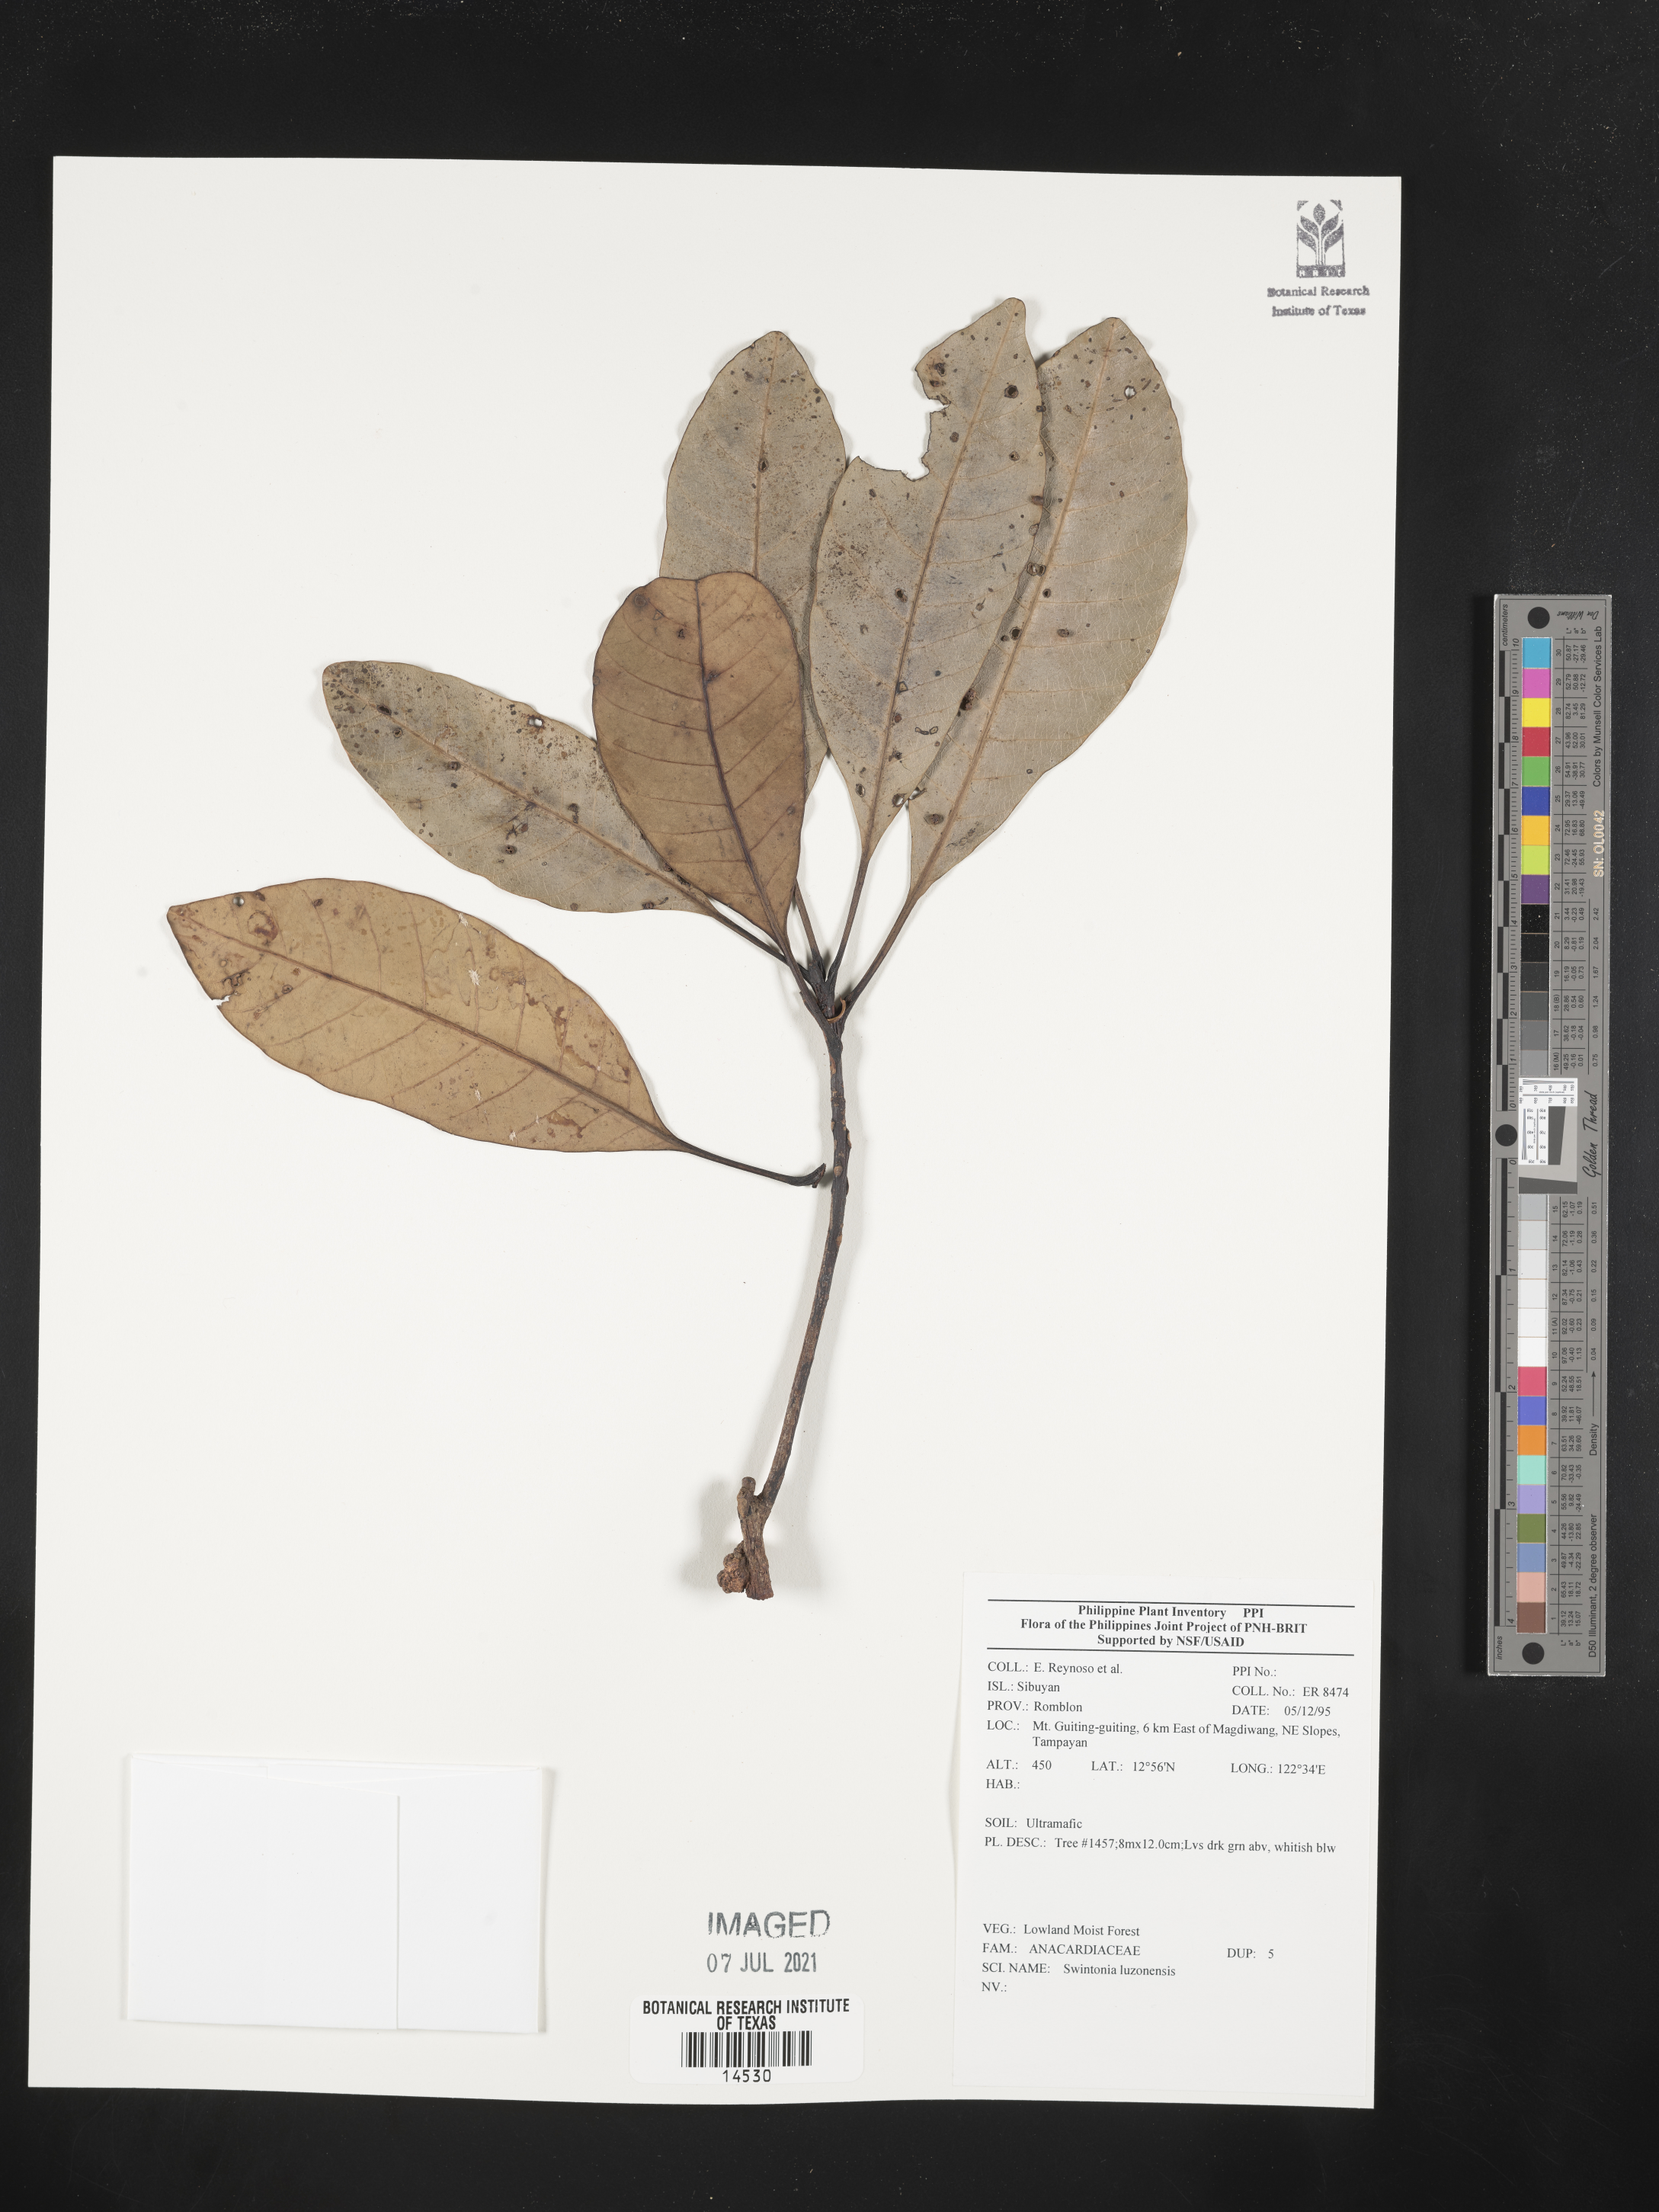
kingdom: Plantae
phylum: Tracheophyta
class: Magnoliopsida
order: Sapindales
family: Anacardiaceae
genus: Swintonia
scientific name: Swintonia acuta
